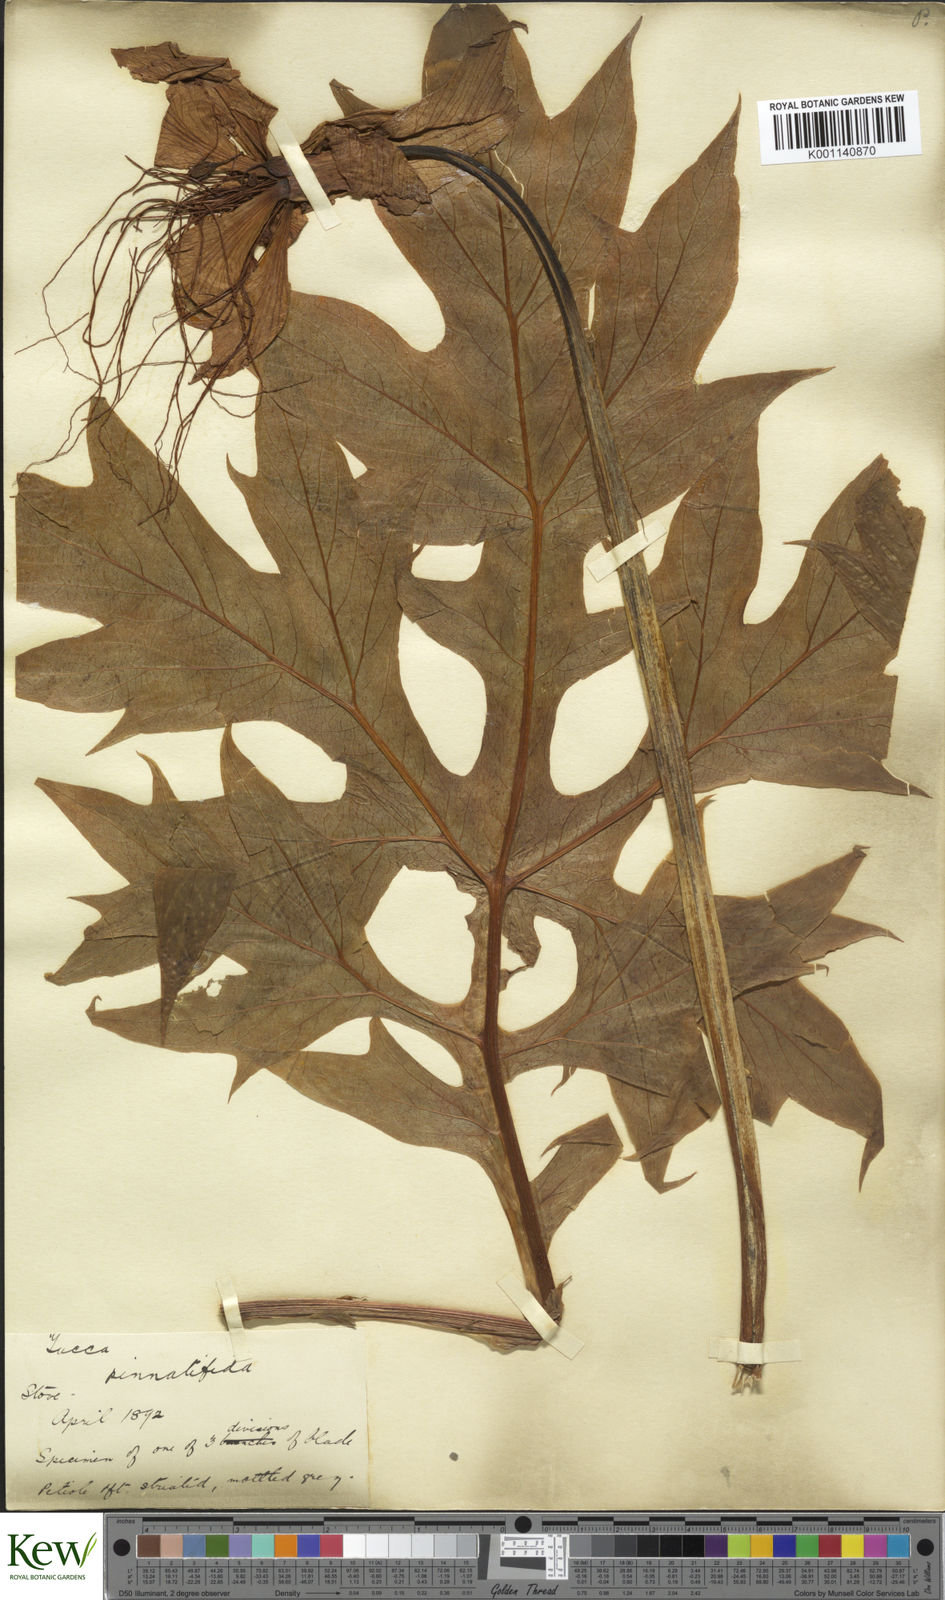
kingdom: Plantae
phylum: Tracheophyta
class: Liliopsida
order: Dioscoreales
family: Dioscoreaceae
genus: Tacca
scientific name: Tacca leontopetaloides
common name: Arrowroot
